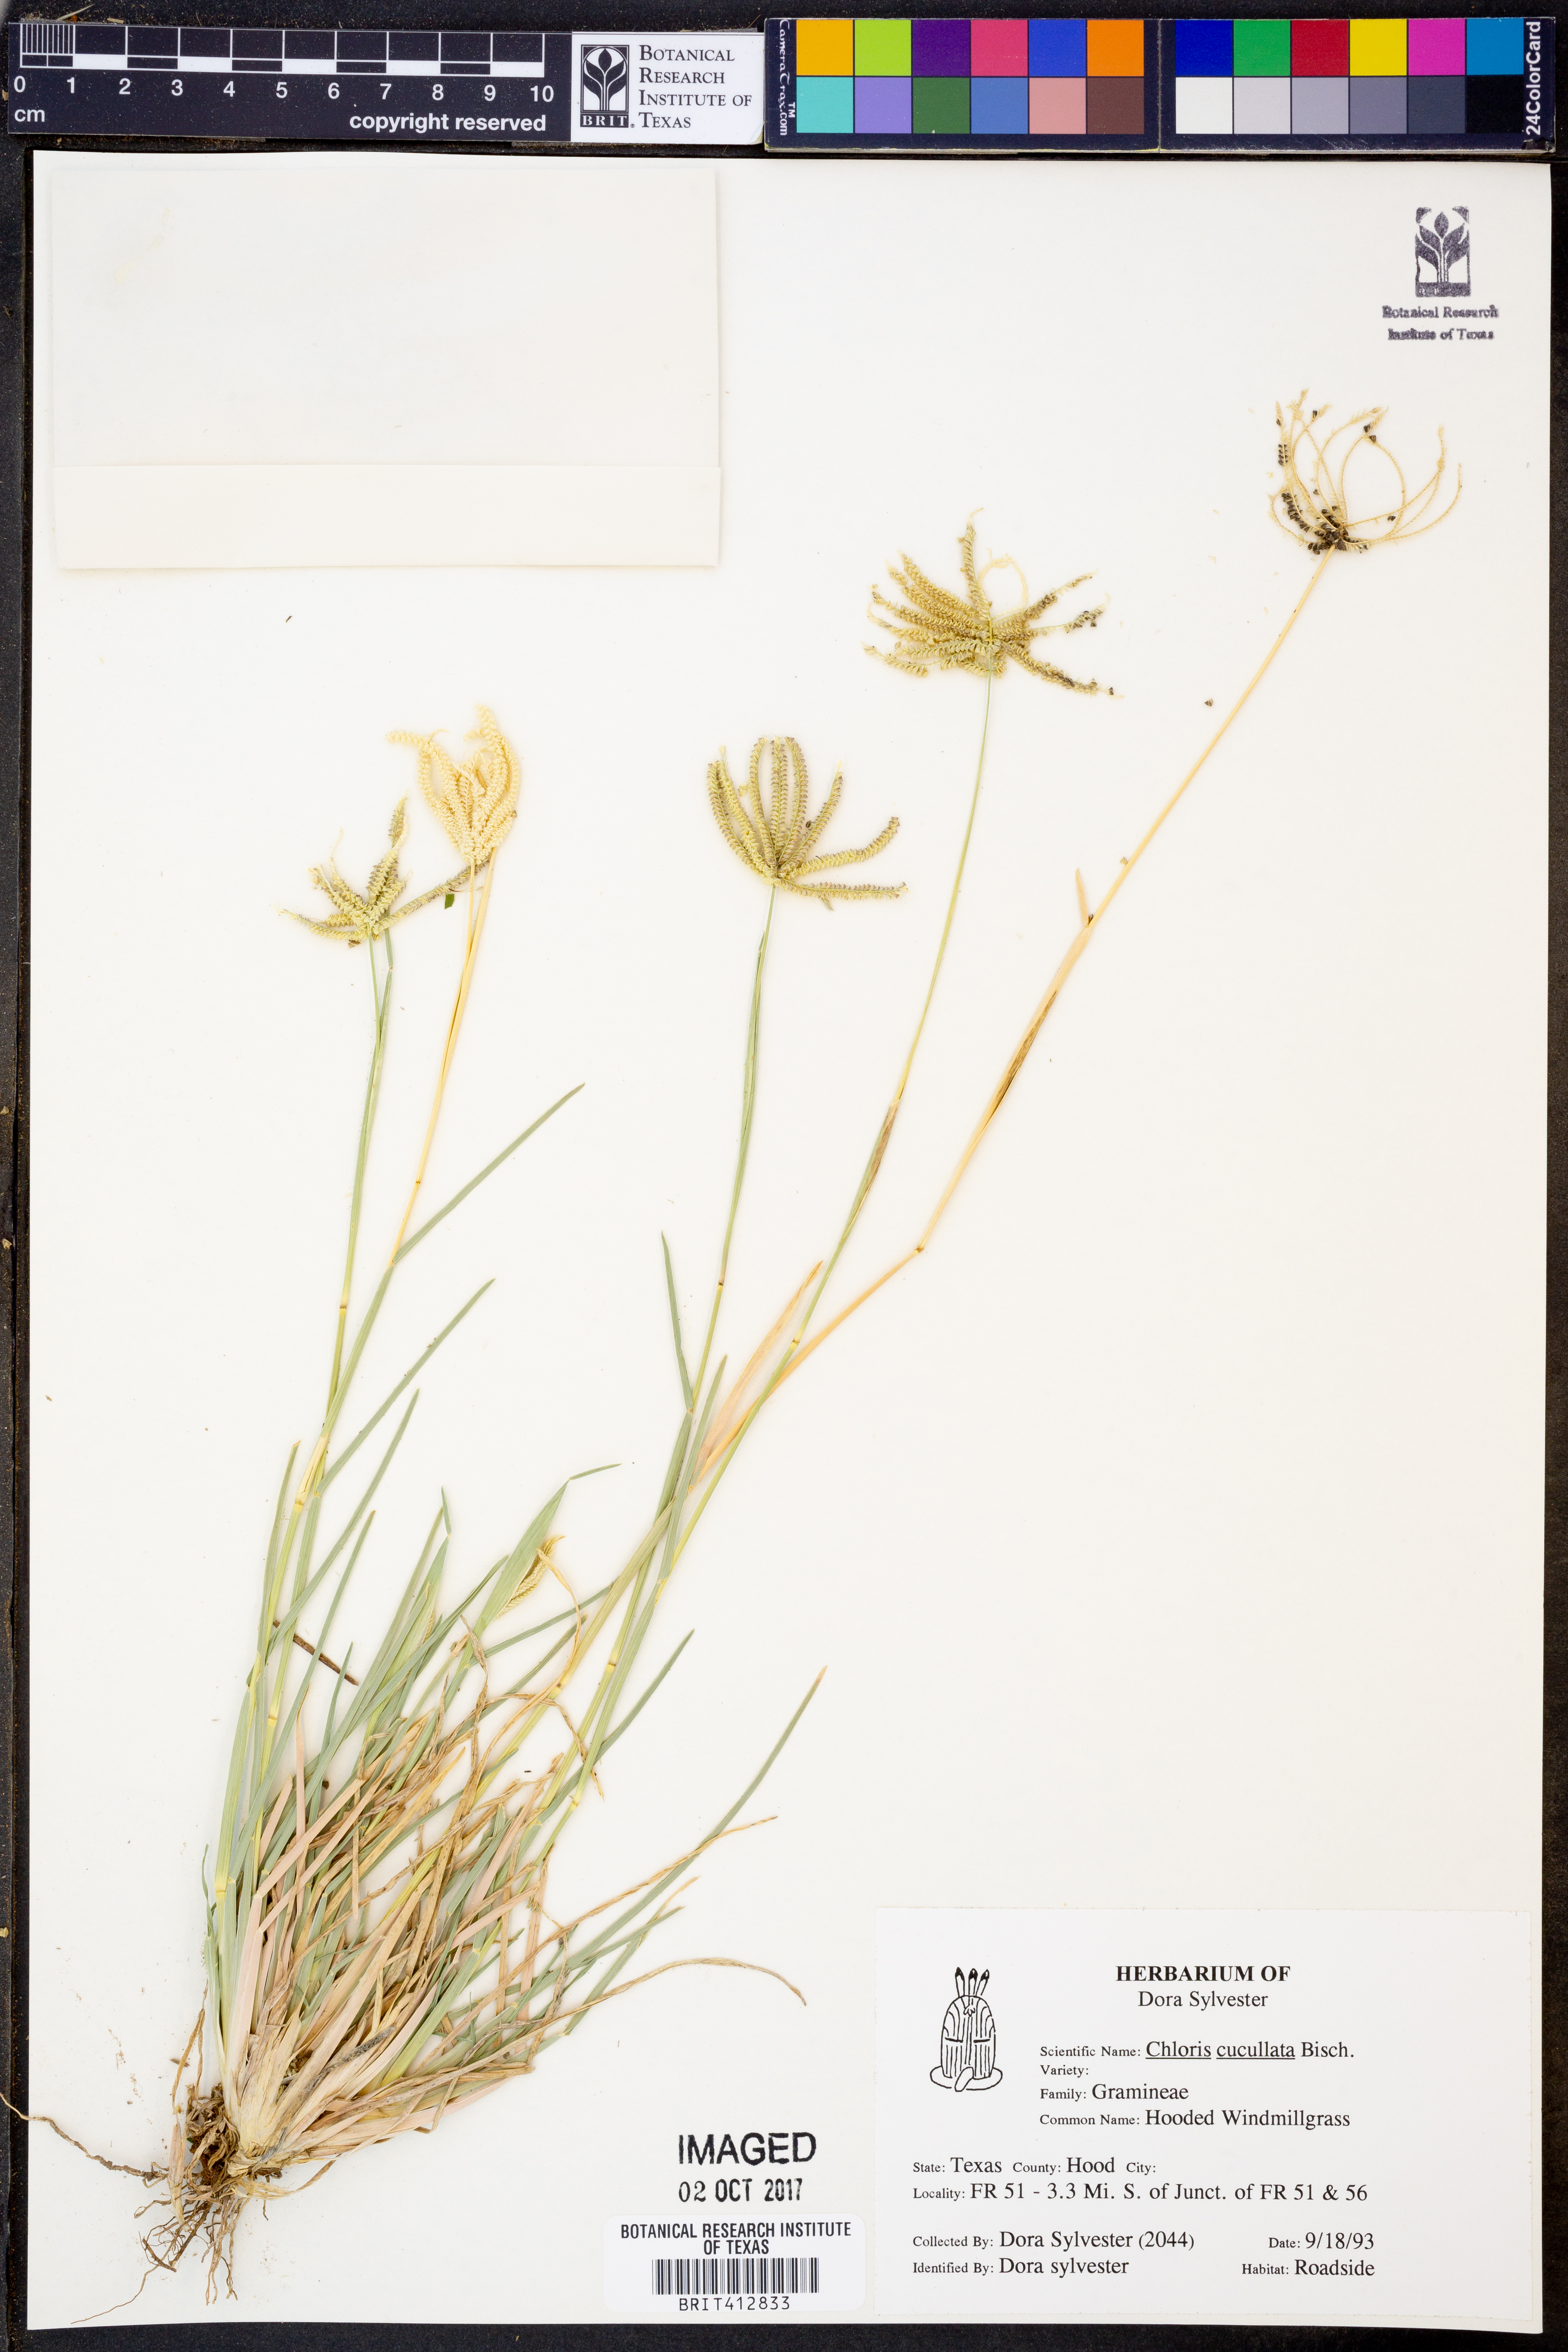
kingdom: Plantae
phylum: Tracheophyta
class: Liliopsida
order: Poales
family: Poaceae
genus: Chloris
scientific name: Chloris cucullata
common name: Hooded windmill grass
